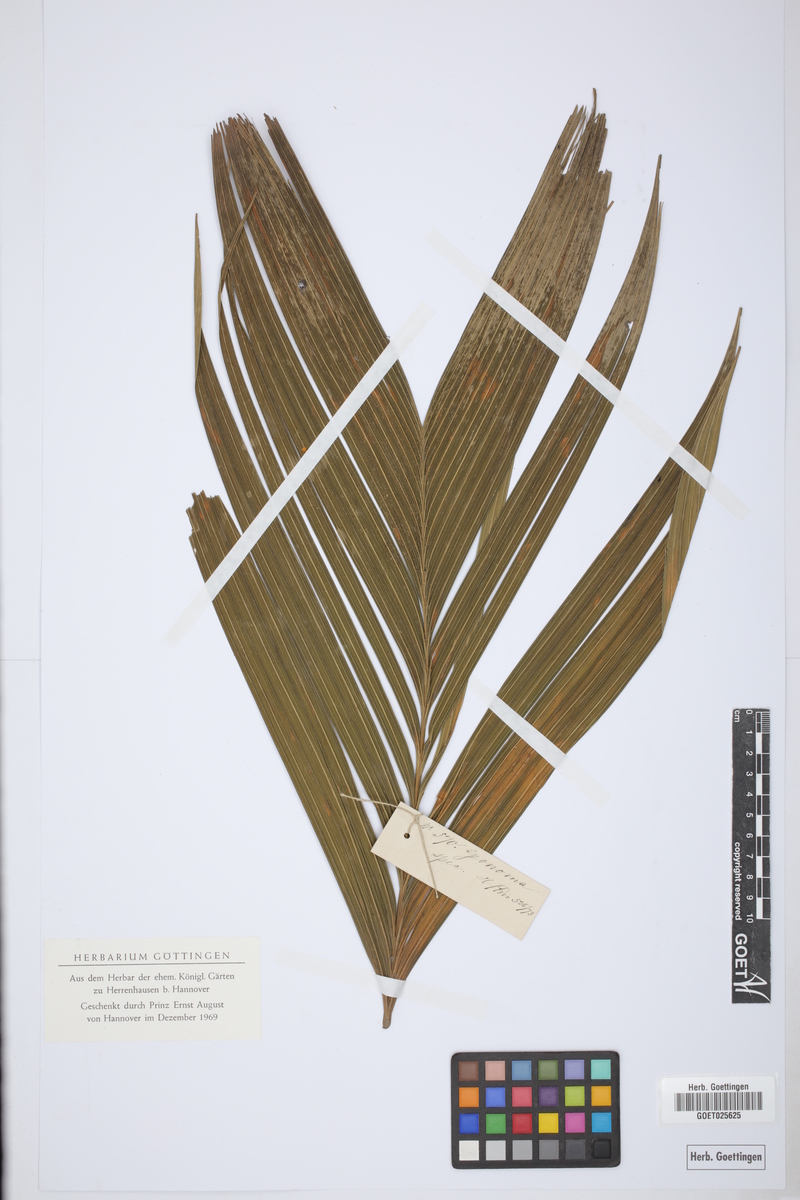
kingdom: Plantae
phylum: Tracheophyta
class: Liliopsida
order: Arecales
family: Arecaceae
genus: Geonoma
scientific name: Geonoma
